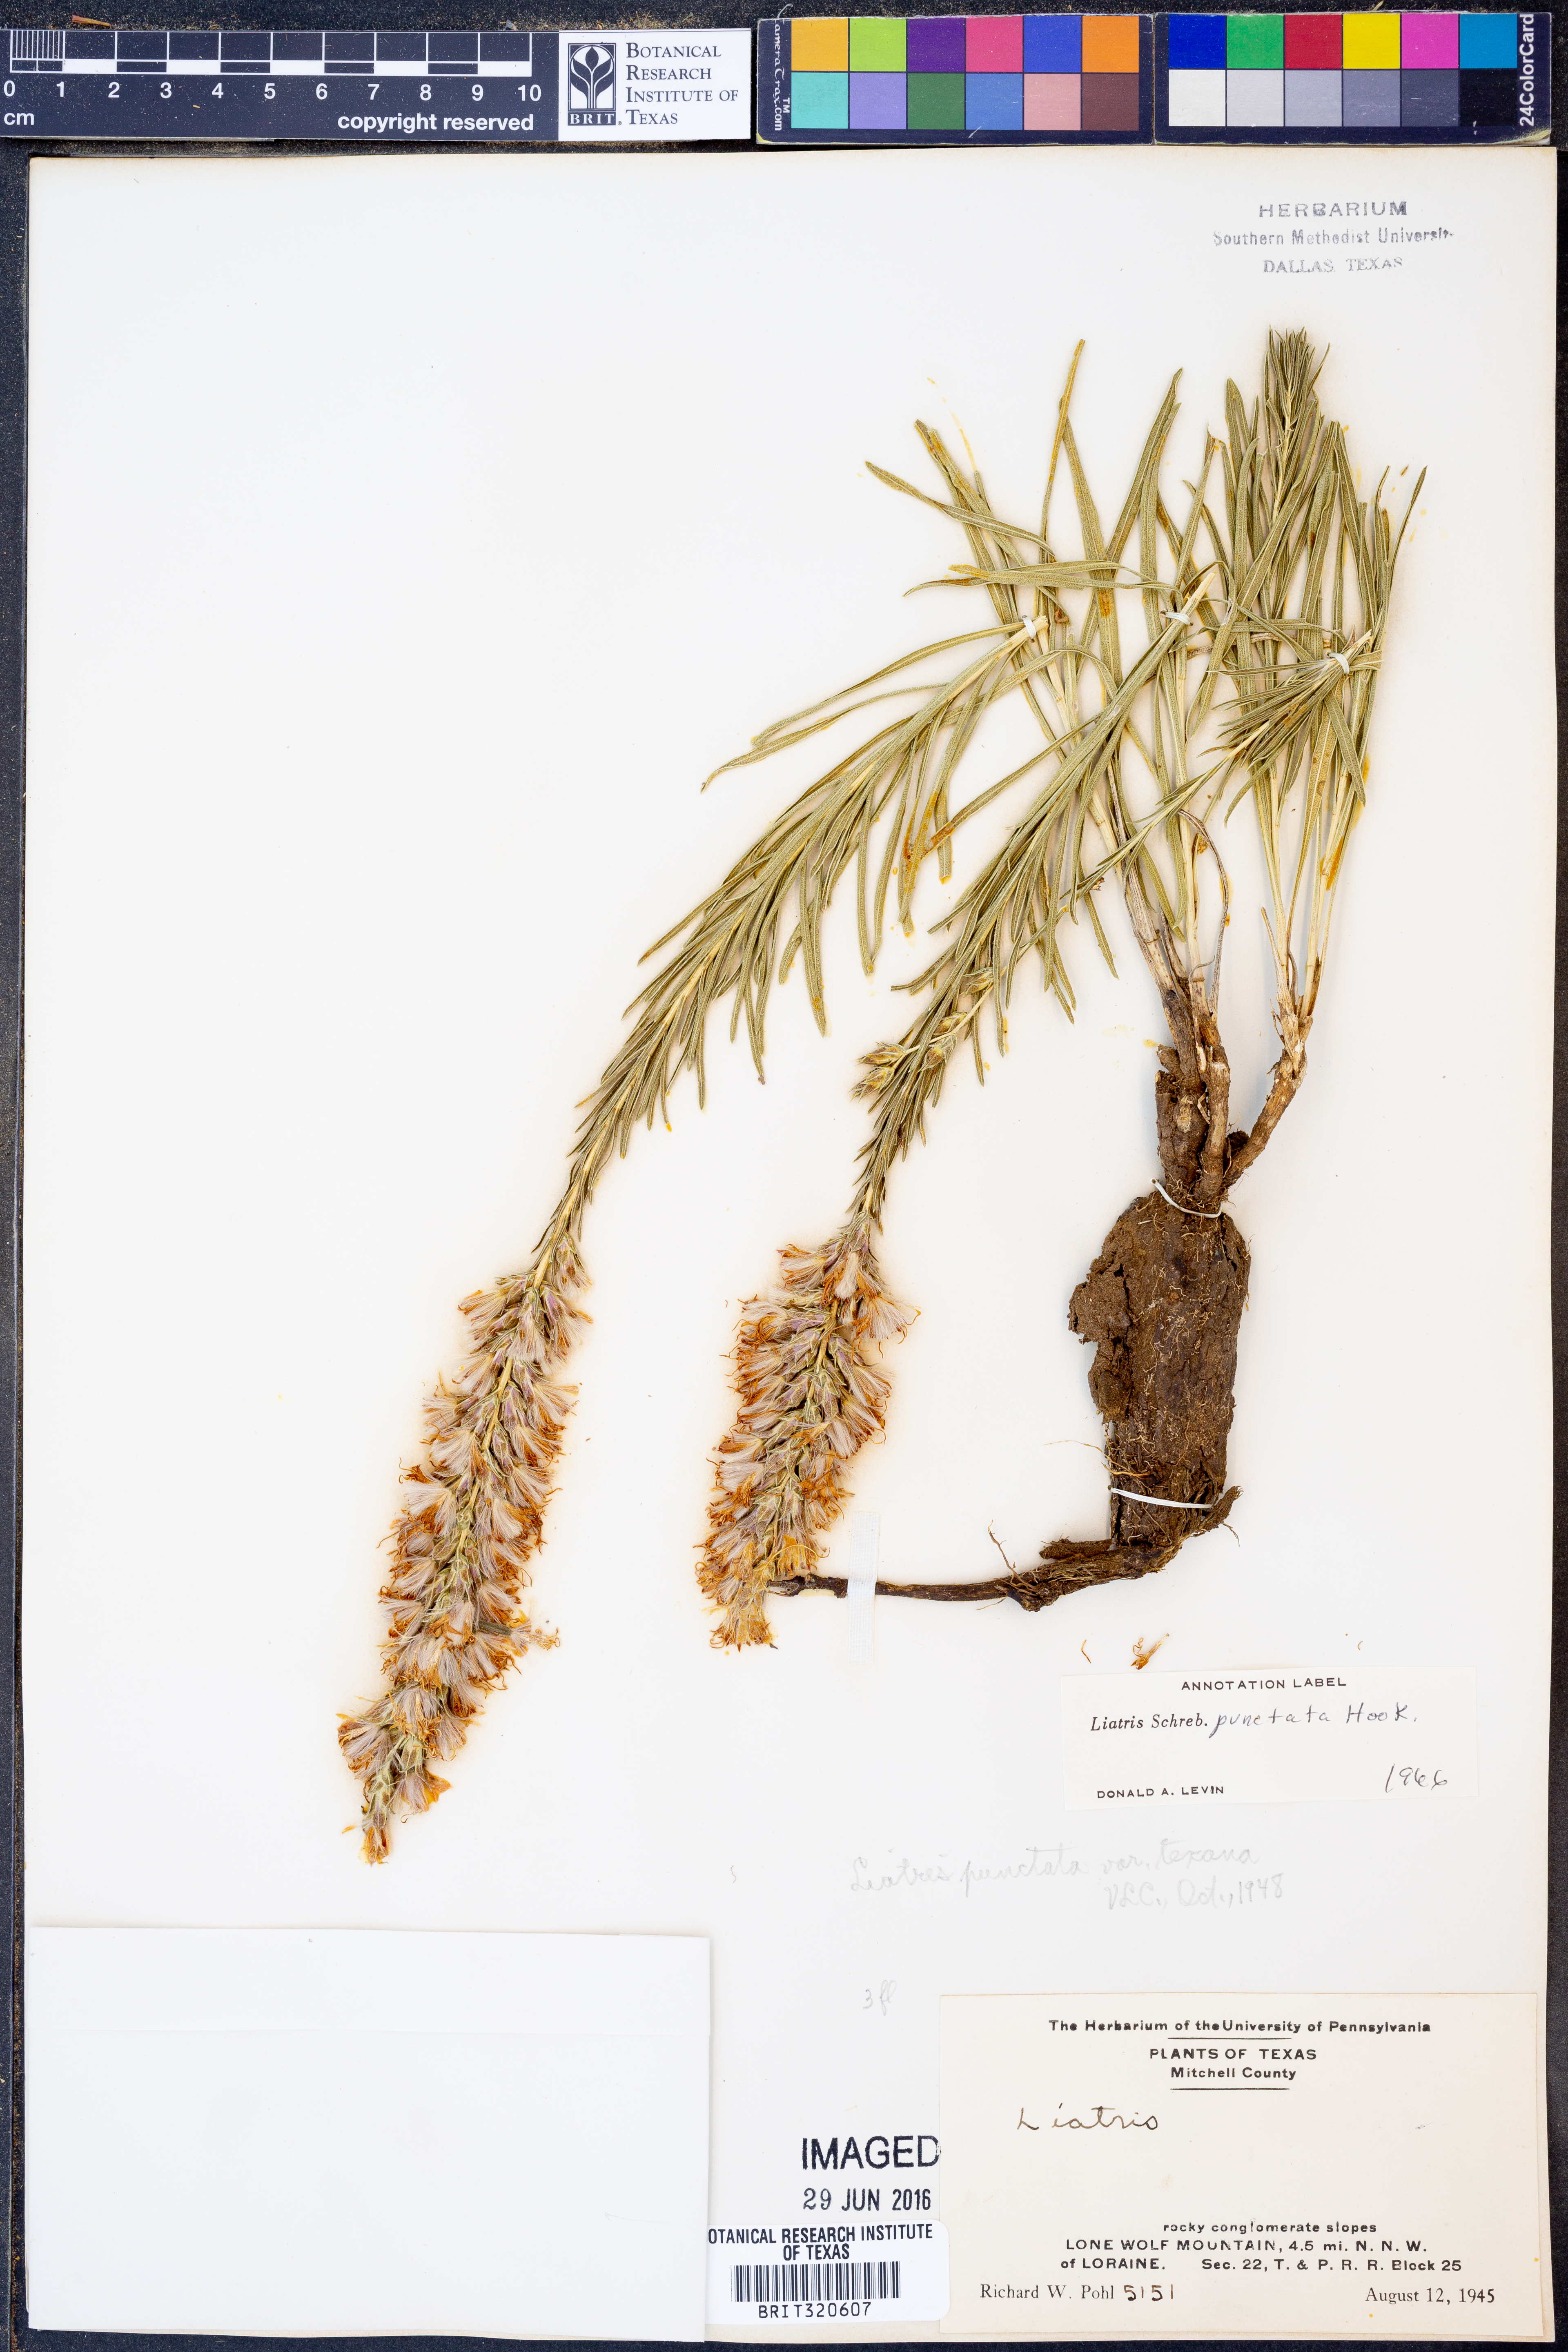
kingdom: Plantae
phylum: Tracheophyta
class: Magnoliopsida
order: Asterales
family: Asteraceae
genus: Liatris
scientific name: Liatris punctata
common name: Dotted gayfeather
